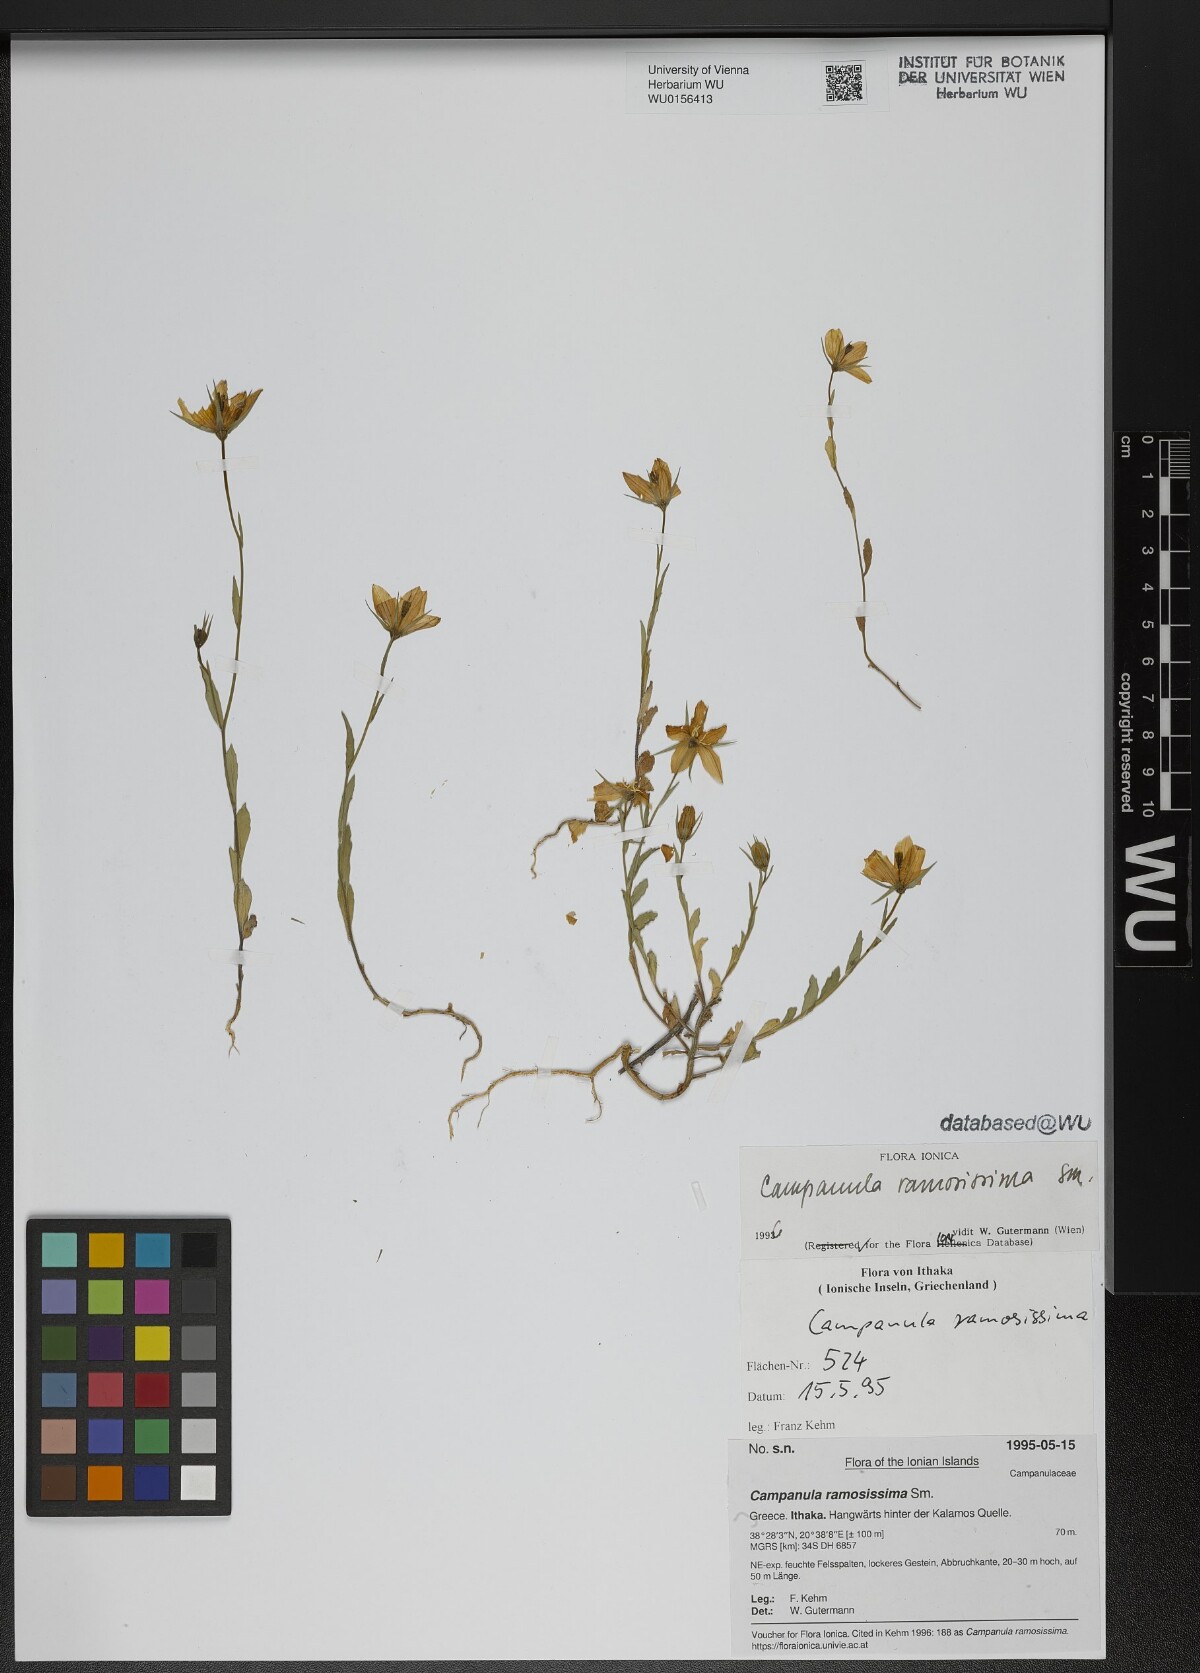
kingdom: Plantae
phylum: Tracheophyta
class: Magnoliopsida
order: Asterales
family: Campanulaceae
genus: Campanula
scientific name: Campanula ramosissima
